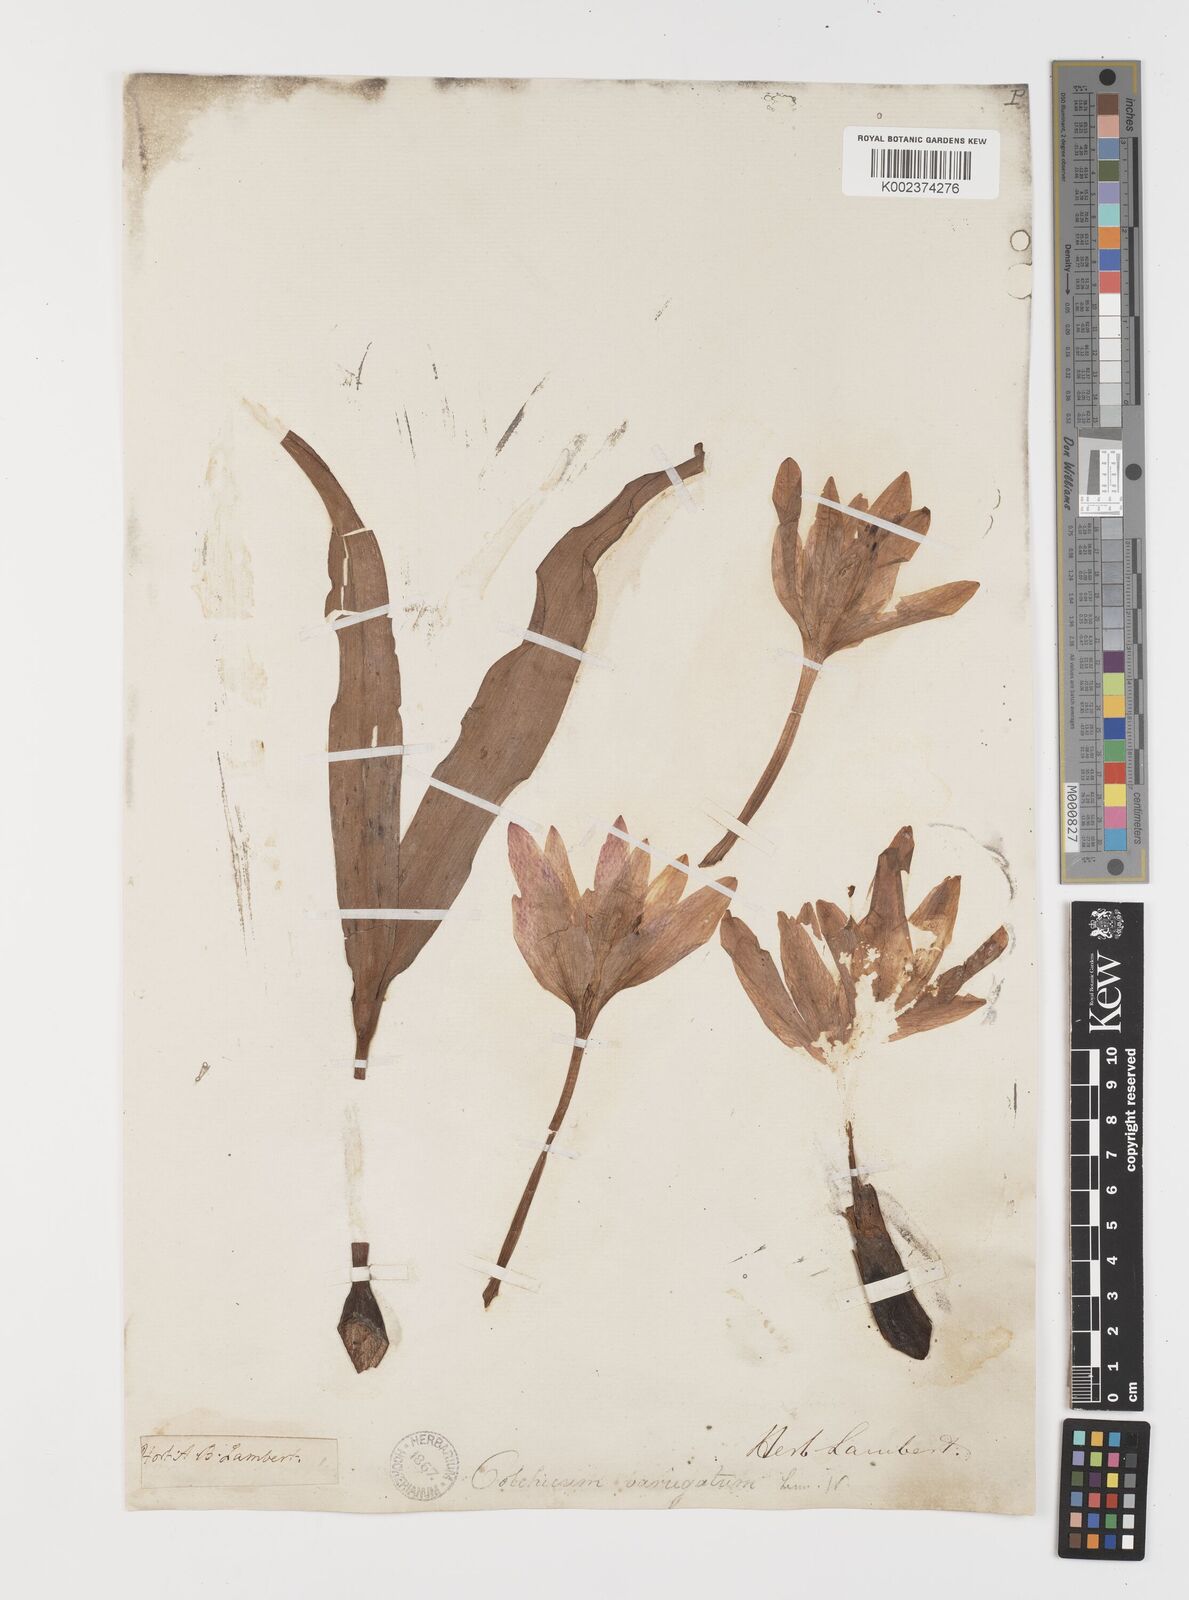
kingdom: Plantae
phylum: Tracheophyta
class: Liliopsida
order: Liliales
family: Colchicaceae
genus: Colchicum
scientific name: Colchicum
